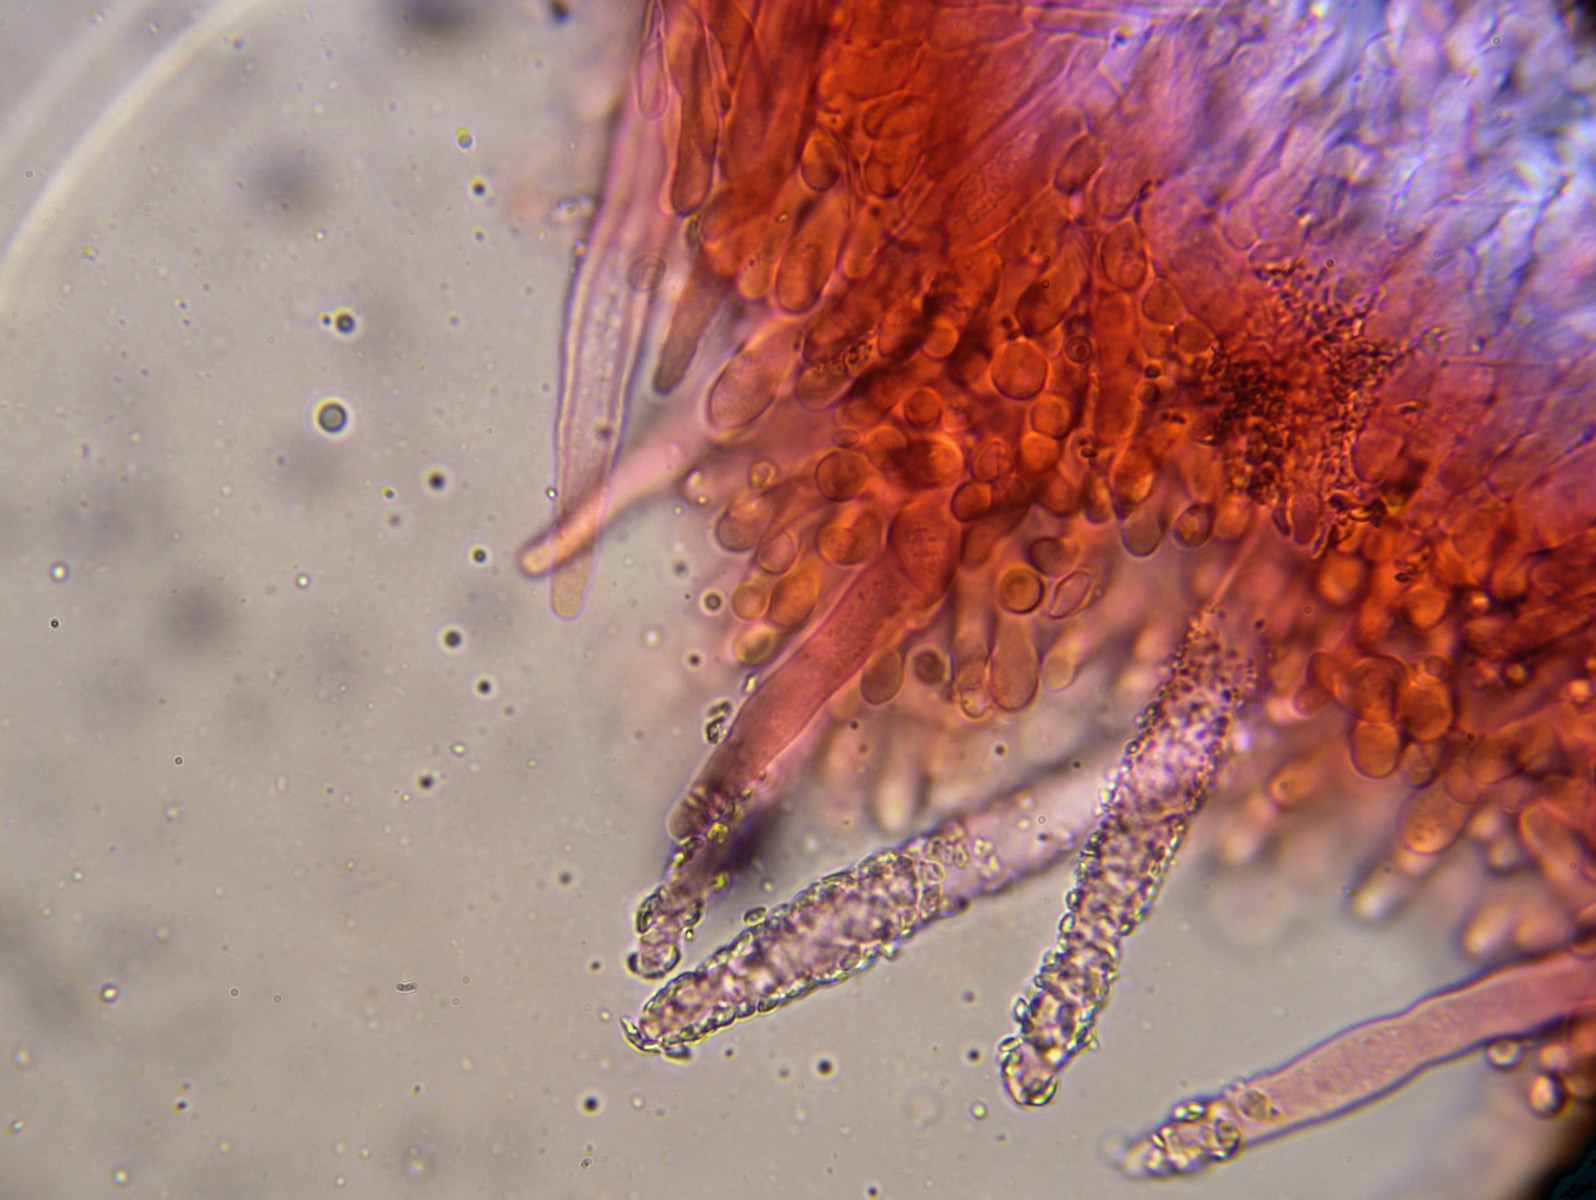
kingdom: Fungi
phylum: Basidiomycota
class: Agaricomycetes
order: Polyporales
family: Phanerochaetaceae
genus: Phanerochaete
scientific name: Phanerochaete velutina
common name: dunet randtråd
